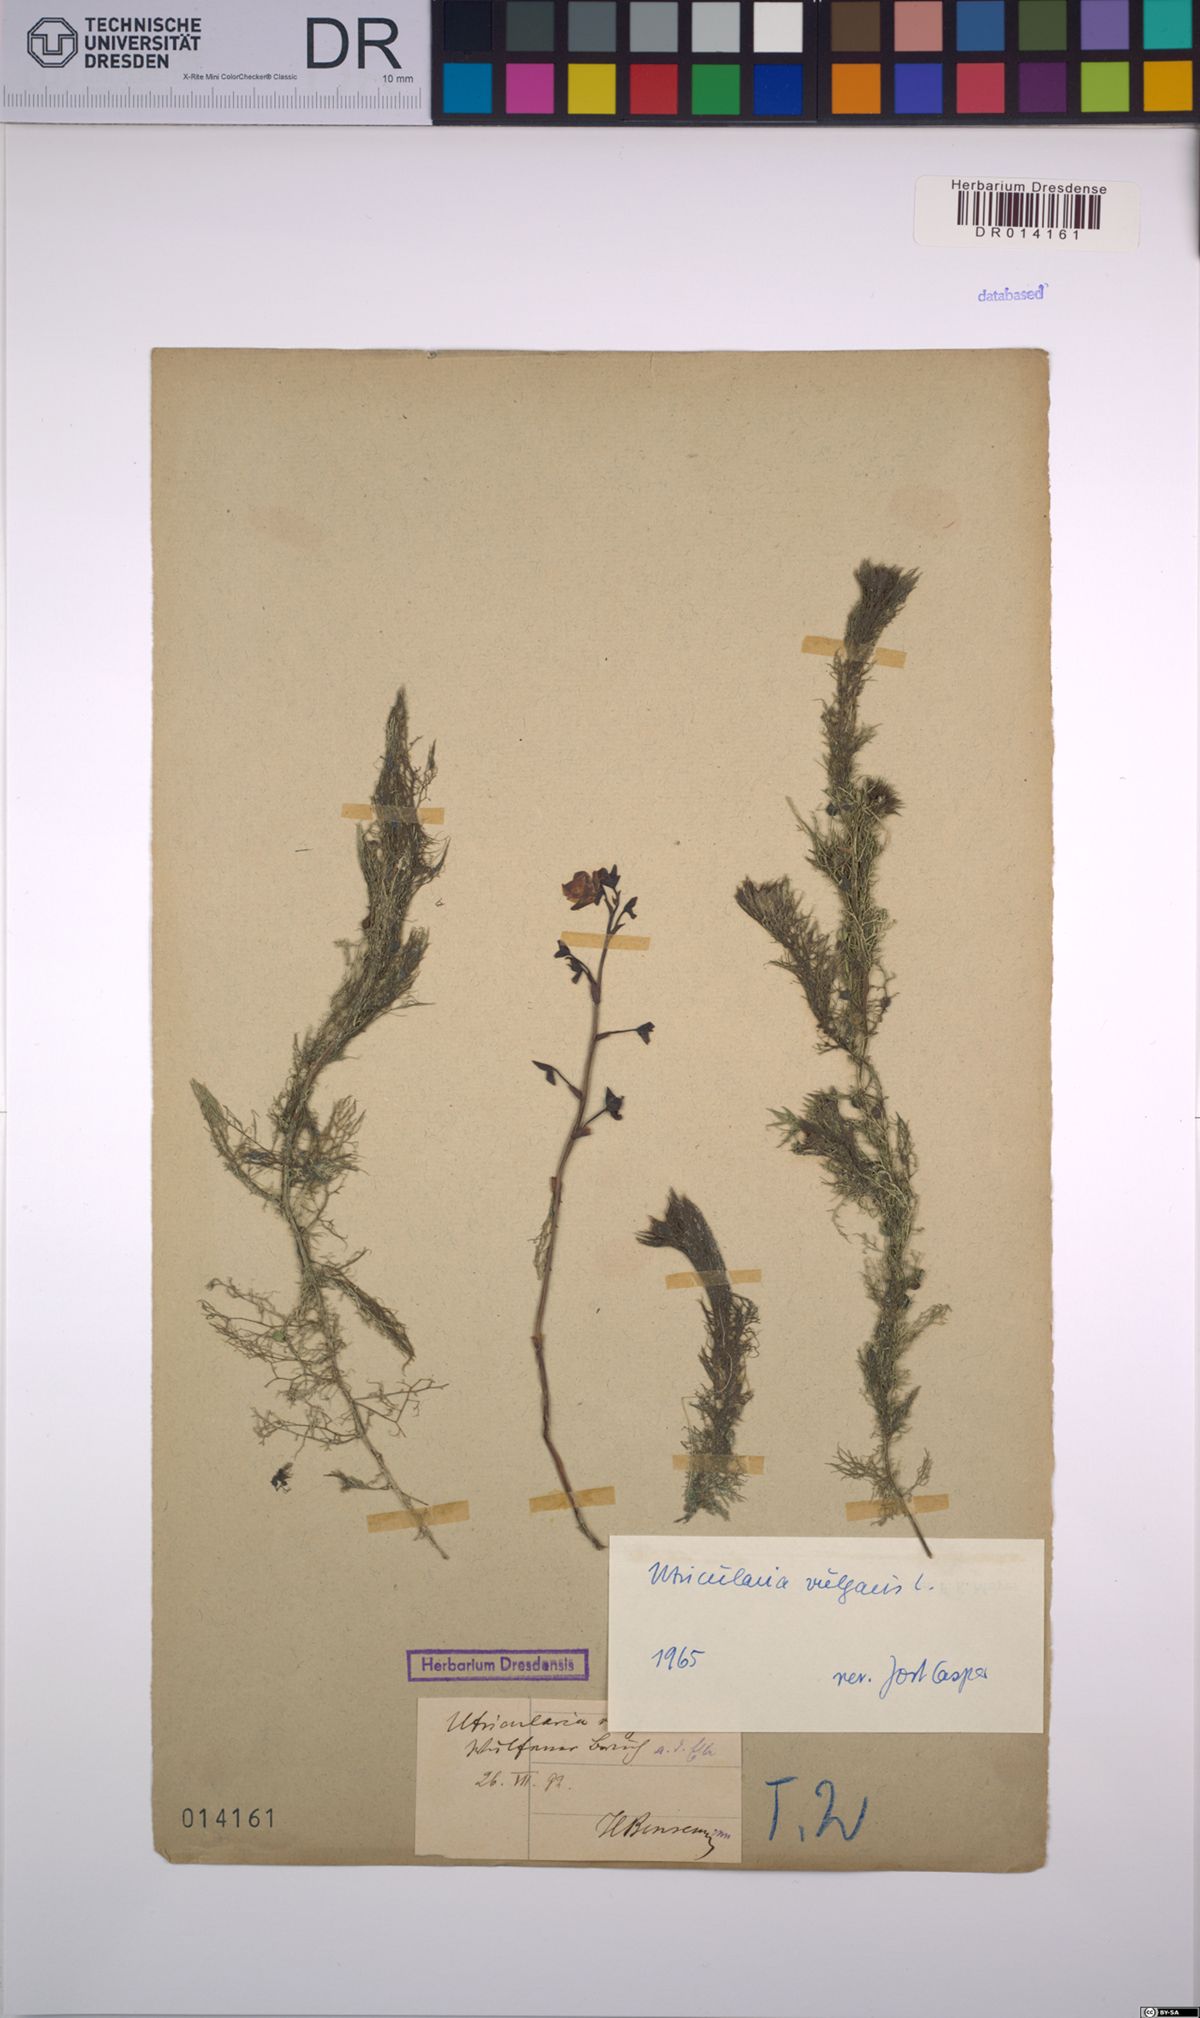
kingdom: Plantae
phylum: Tracheophyta
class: Magnoliopsida
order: Lamiales
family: Lentibulariaceae
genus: Utricularia
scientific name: Utricularia vulgaris
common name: Greater bladderwort
